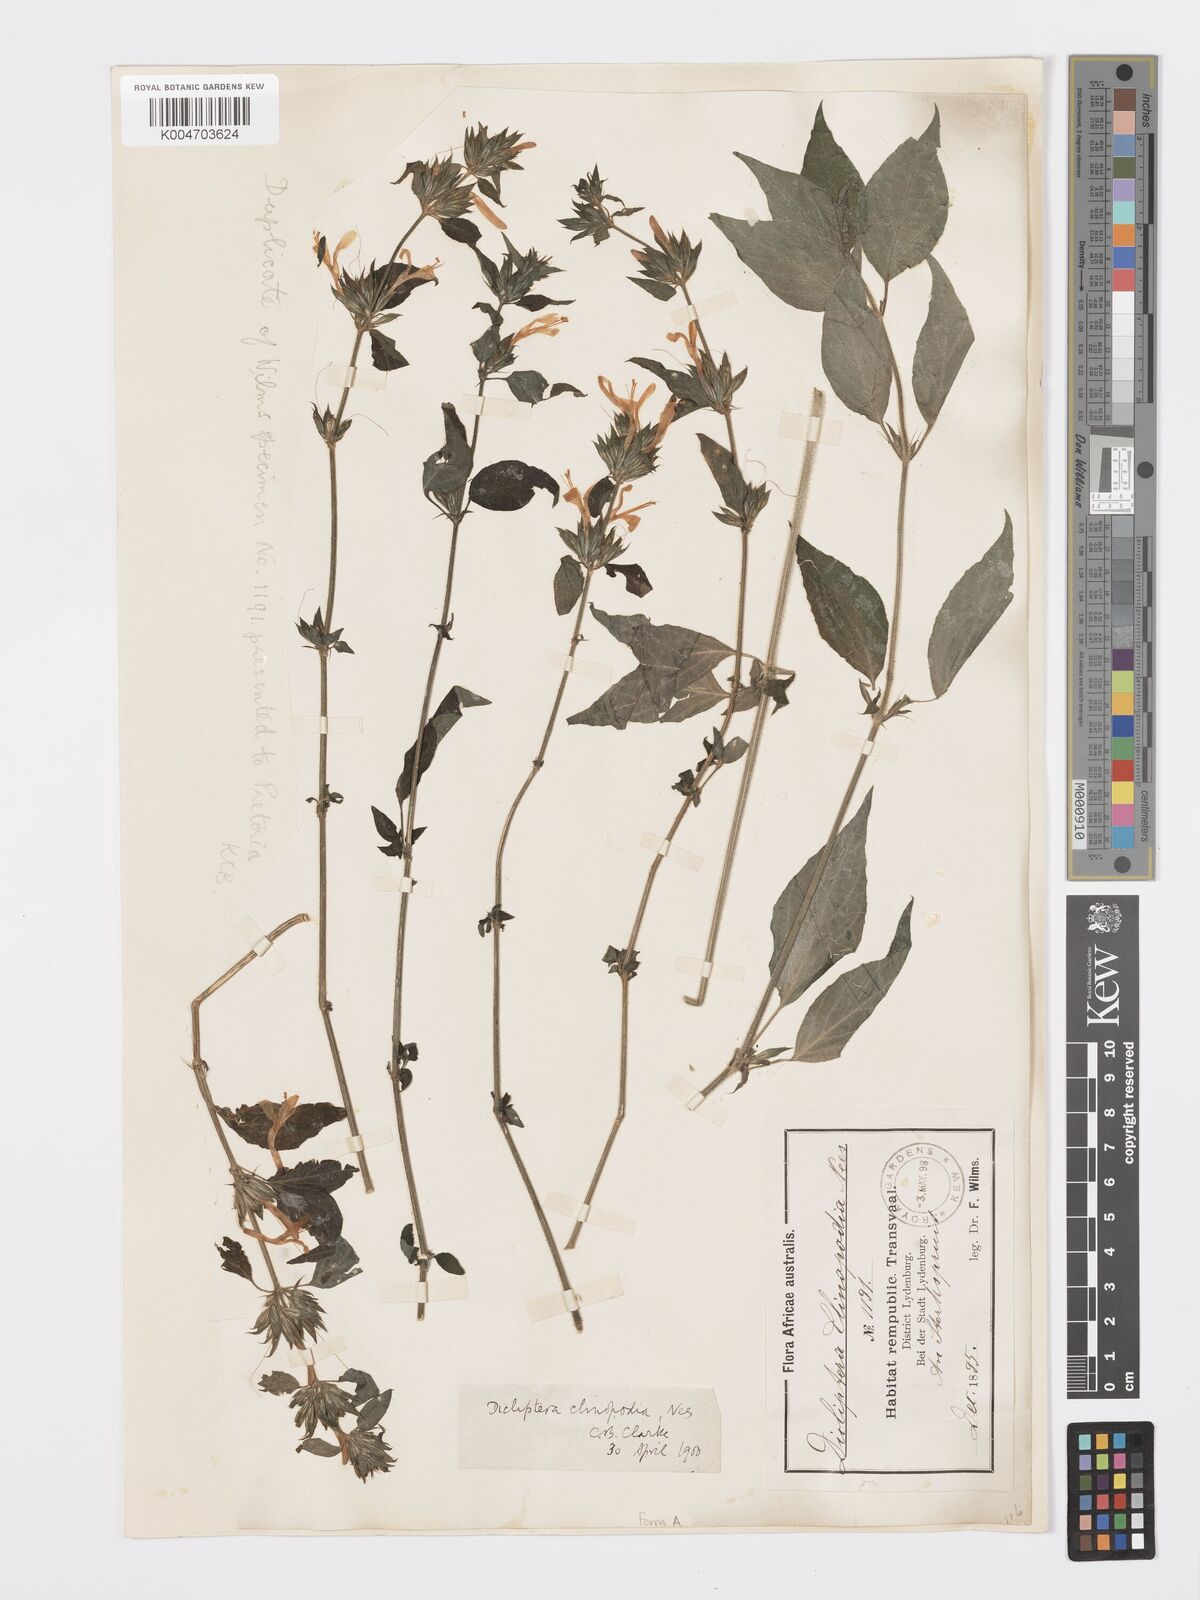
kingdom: Plantae
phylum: Tracheophyta
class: Magnoliopsida
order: Lamiales
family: Acanthaceae
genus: Dicliptera
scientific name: Dicliptera clinopodia
